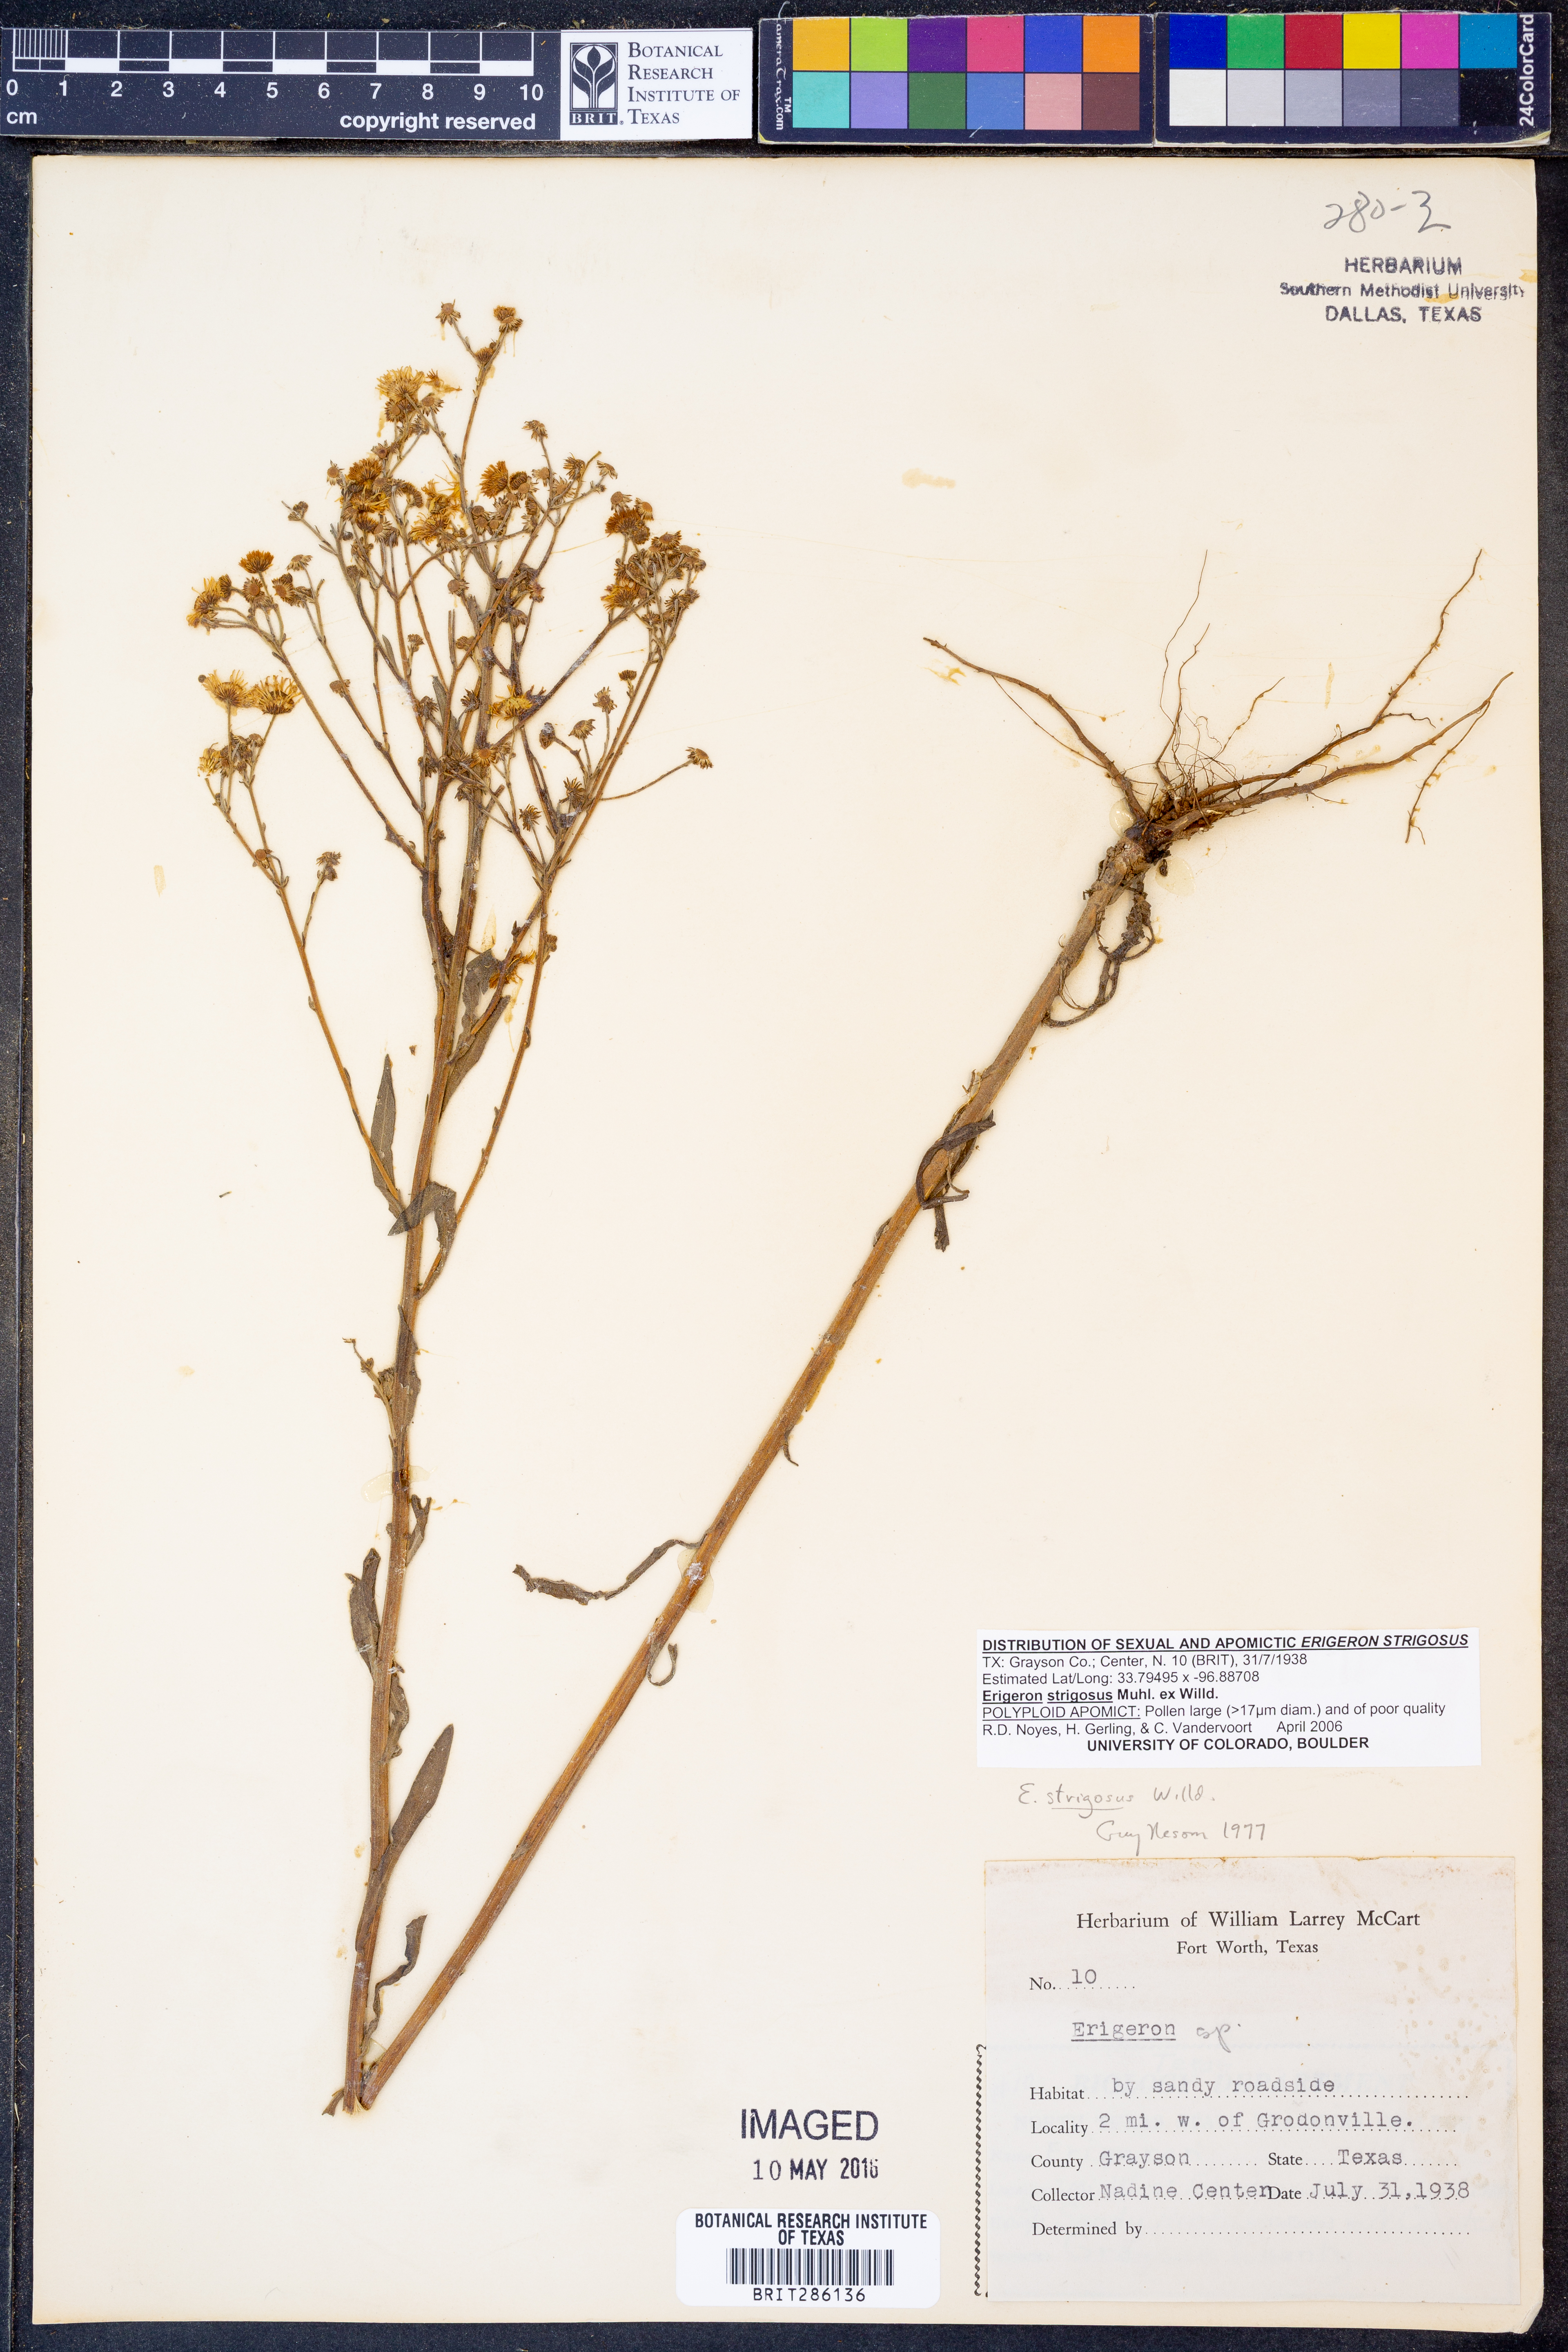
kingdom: Plantae
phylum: Tracheophyta
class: Magnoliopsida
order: Asterales
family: Asteraceae
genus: Erigeron
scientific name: Erigeron strigosus
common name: Common eastern fleabane
